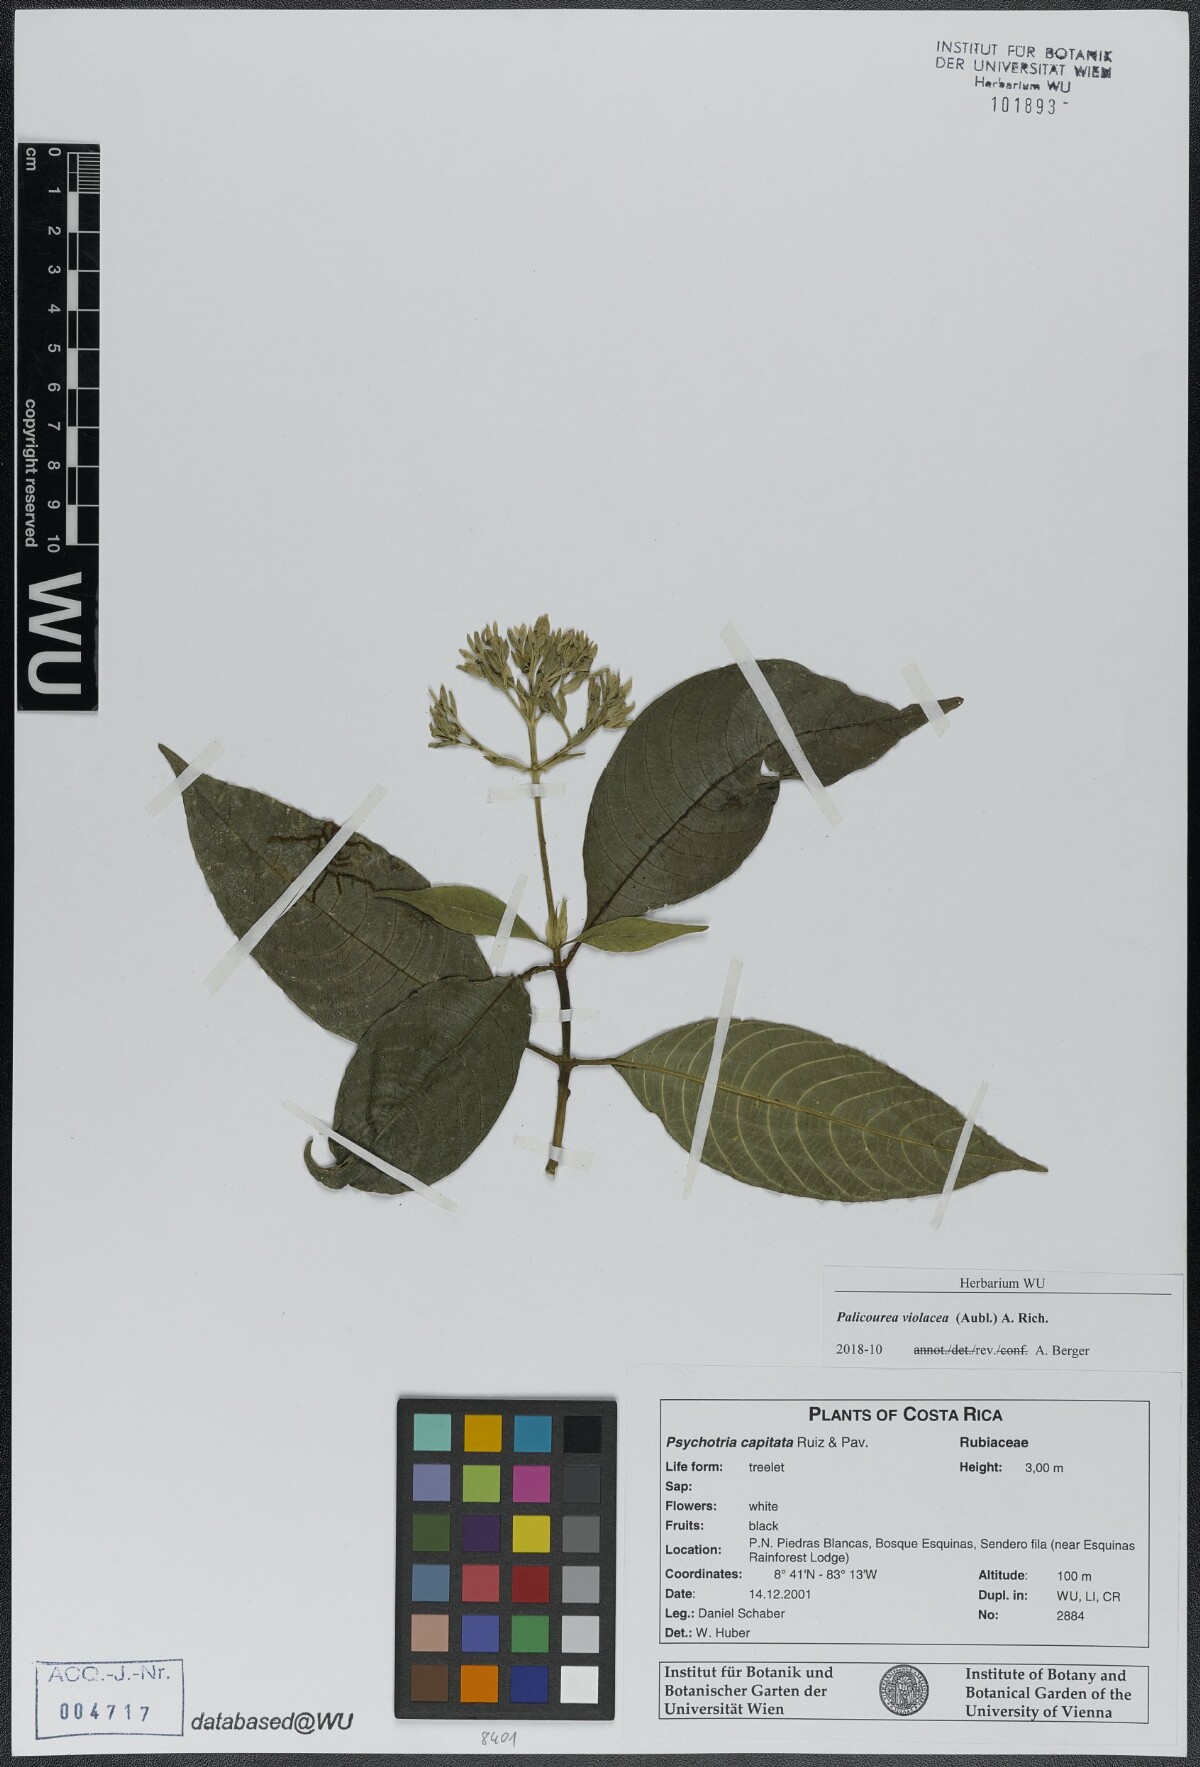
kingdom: Plantae
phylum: Tracheophyta
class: Magnoliopsida
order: Gentianales
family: Rubiaceae
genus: Palicourea
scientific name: Palicourea violacea
